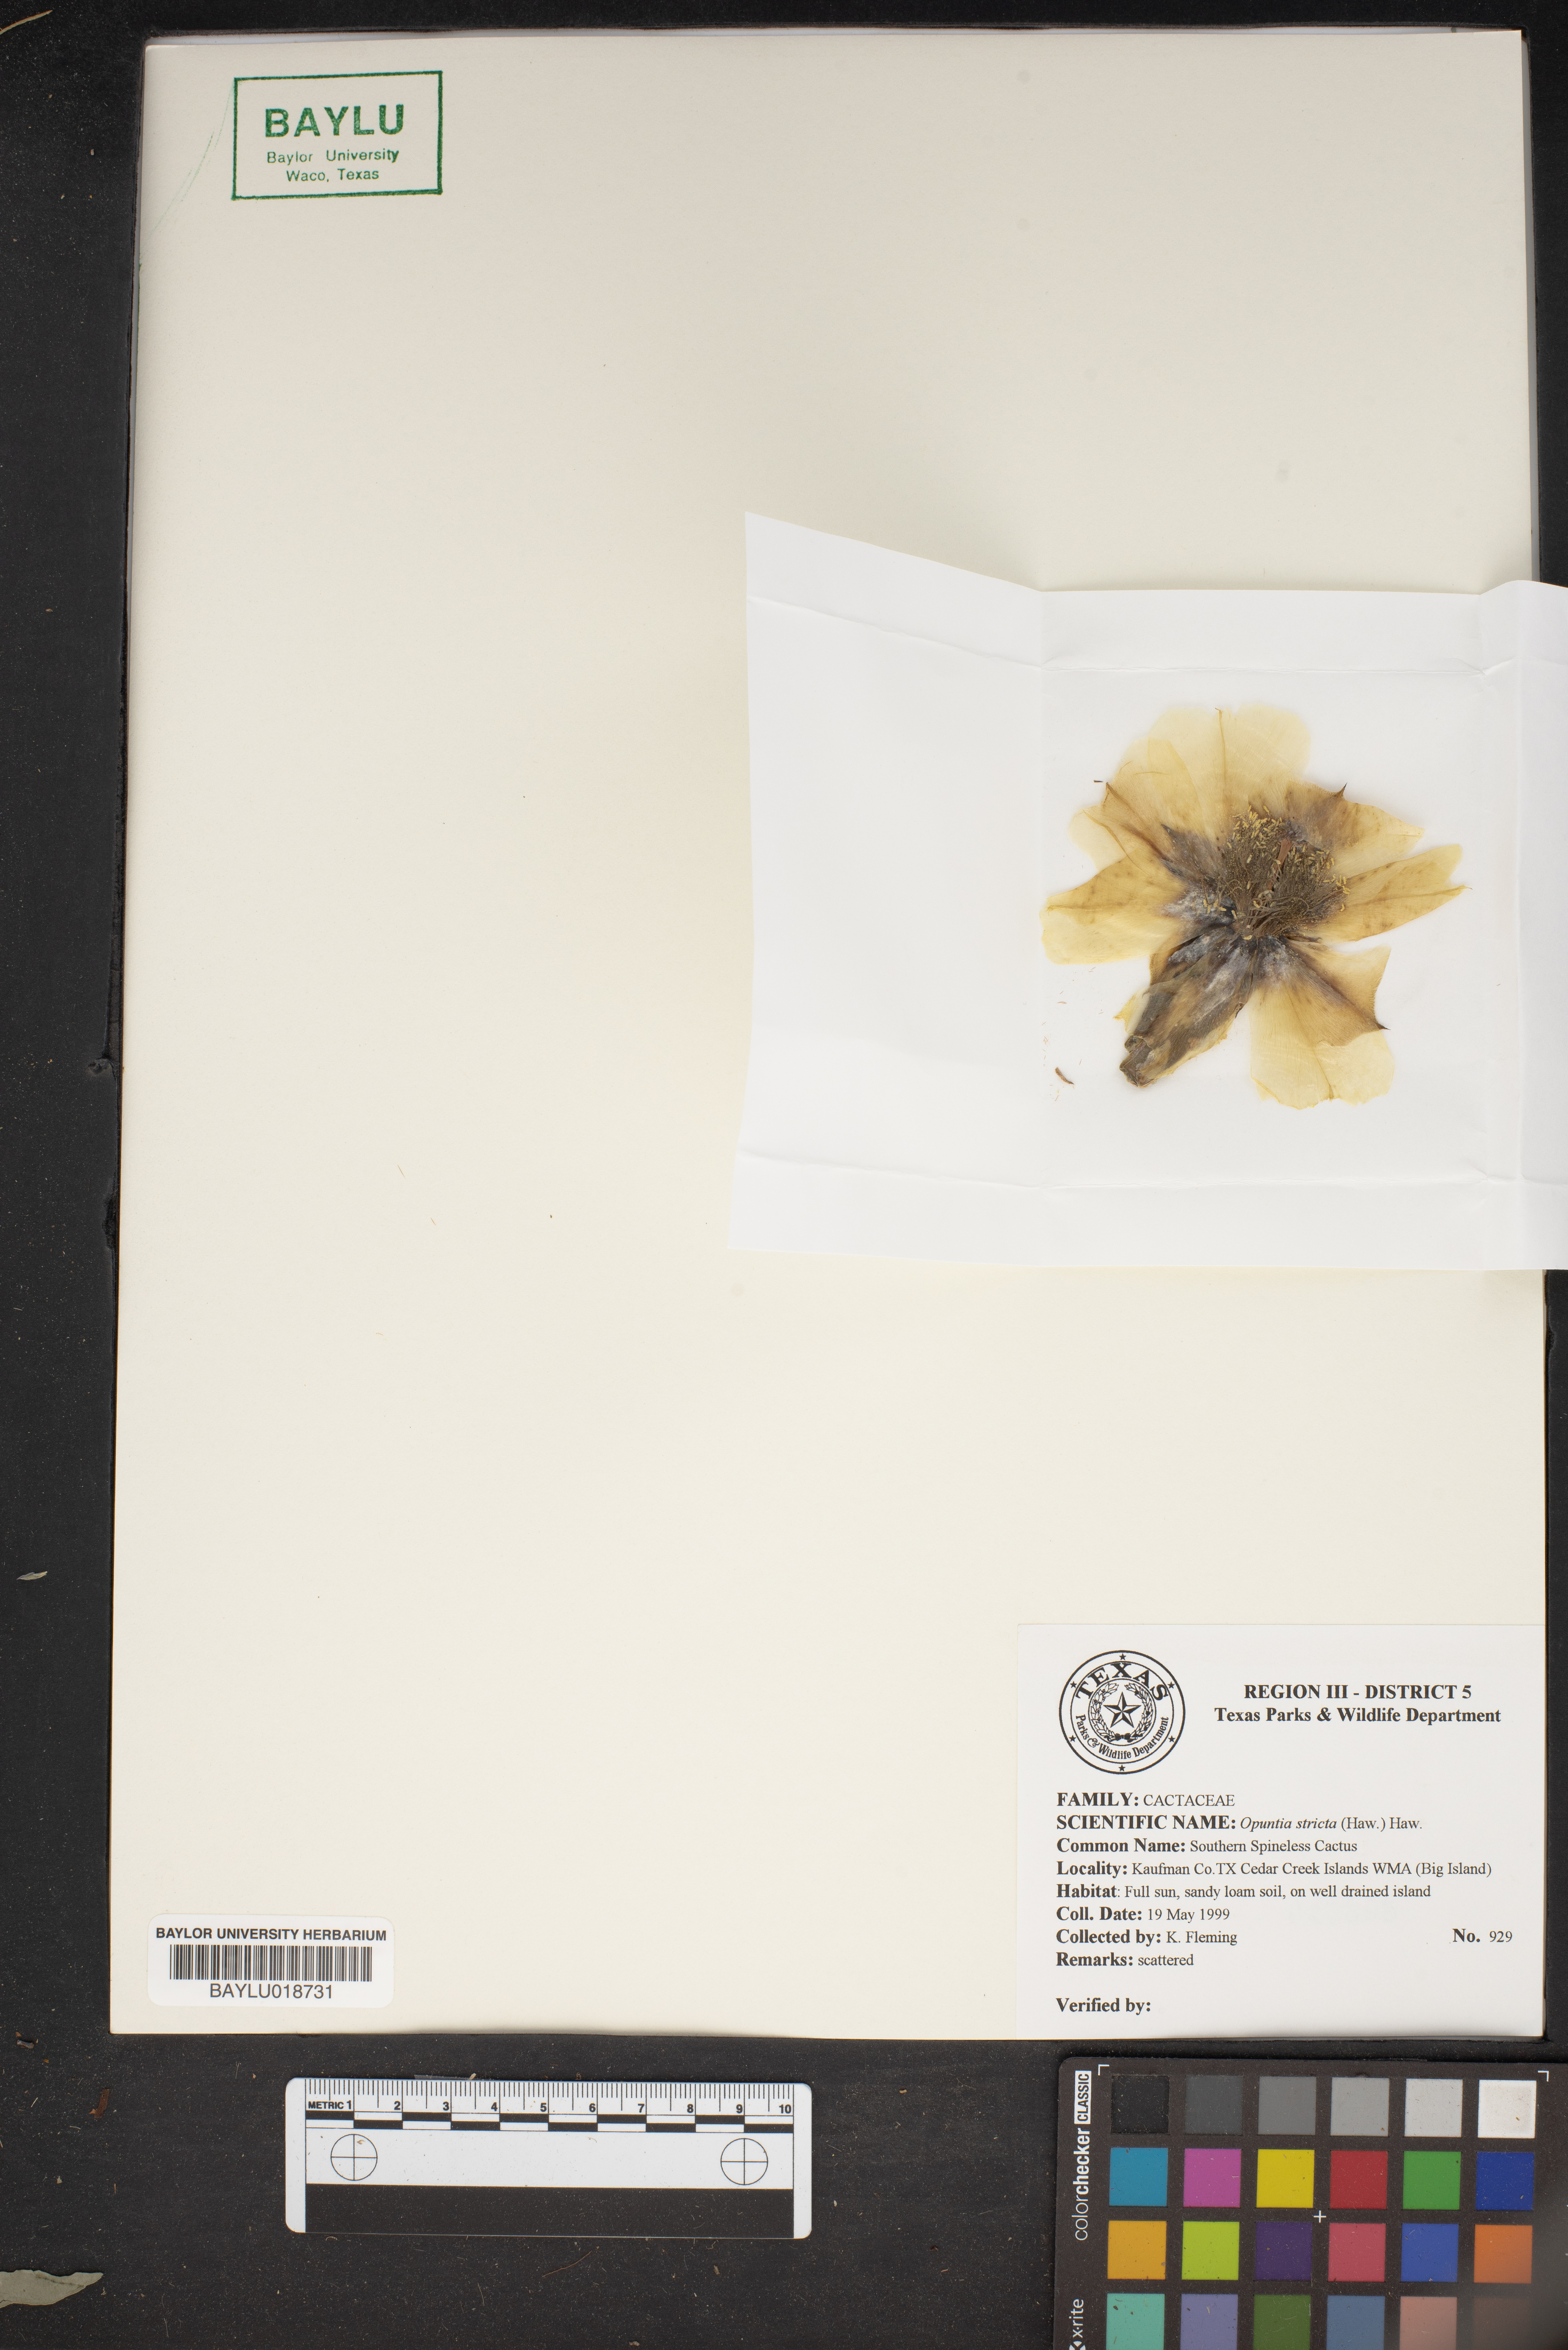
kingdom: Plantae
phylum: Tracheophyta
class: Magnoliopsida
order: Caryophyllales
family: Cactaceae
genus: Opuntia
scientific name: Opuntia stricta
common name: Erect pricklypear
